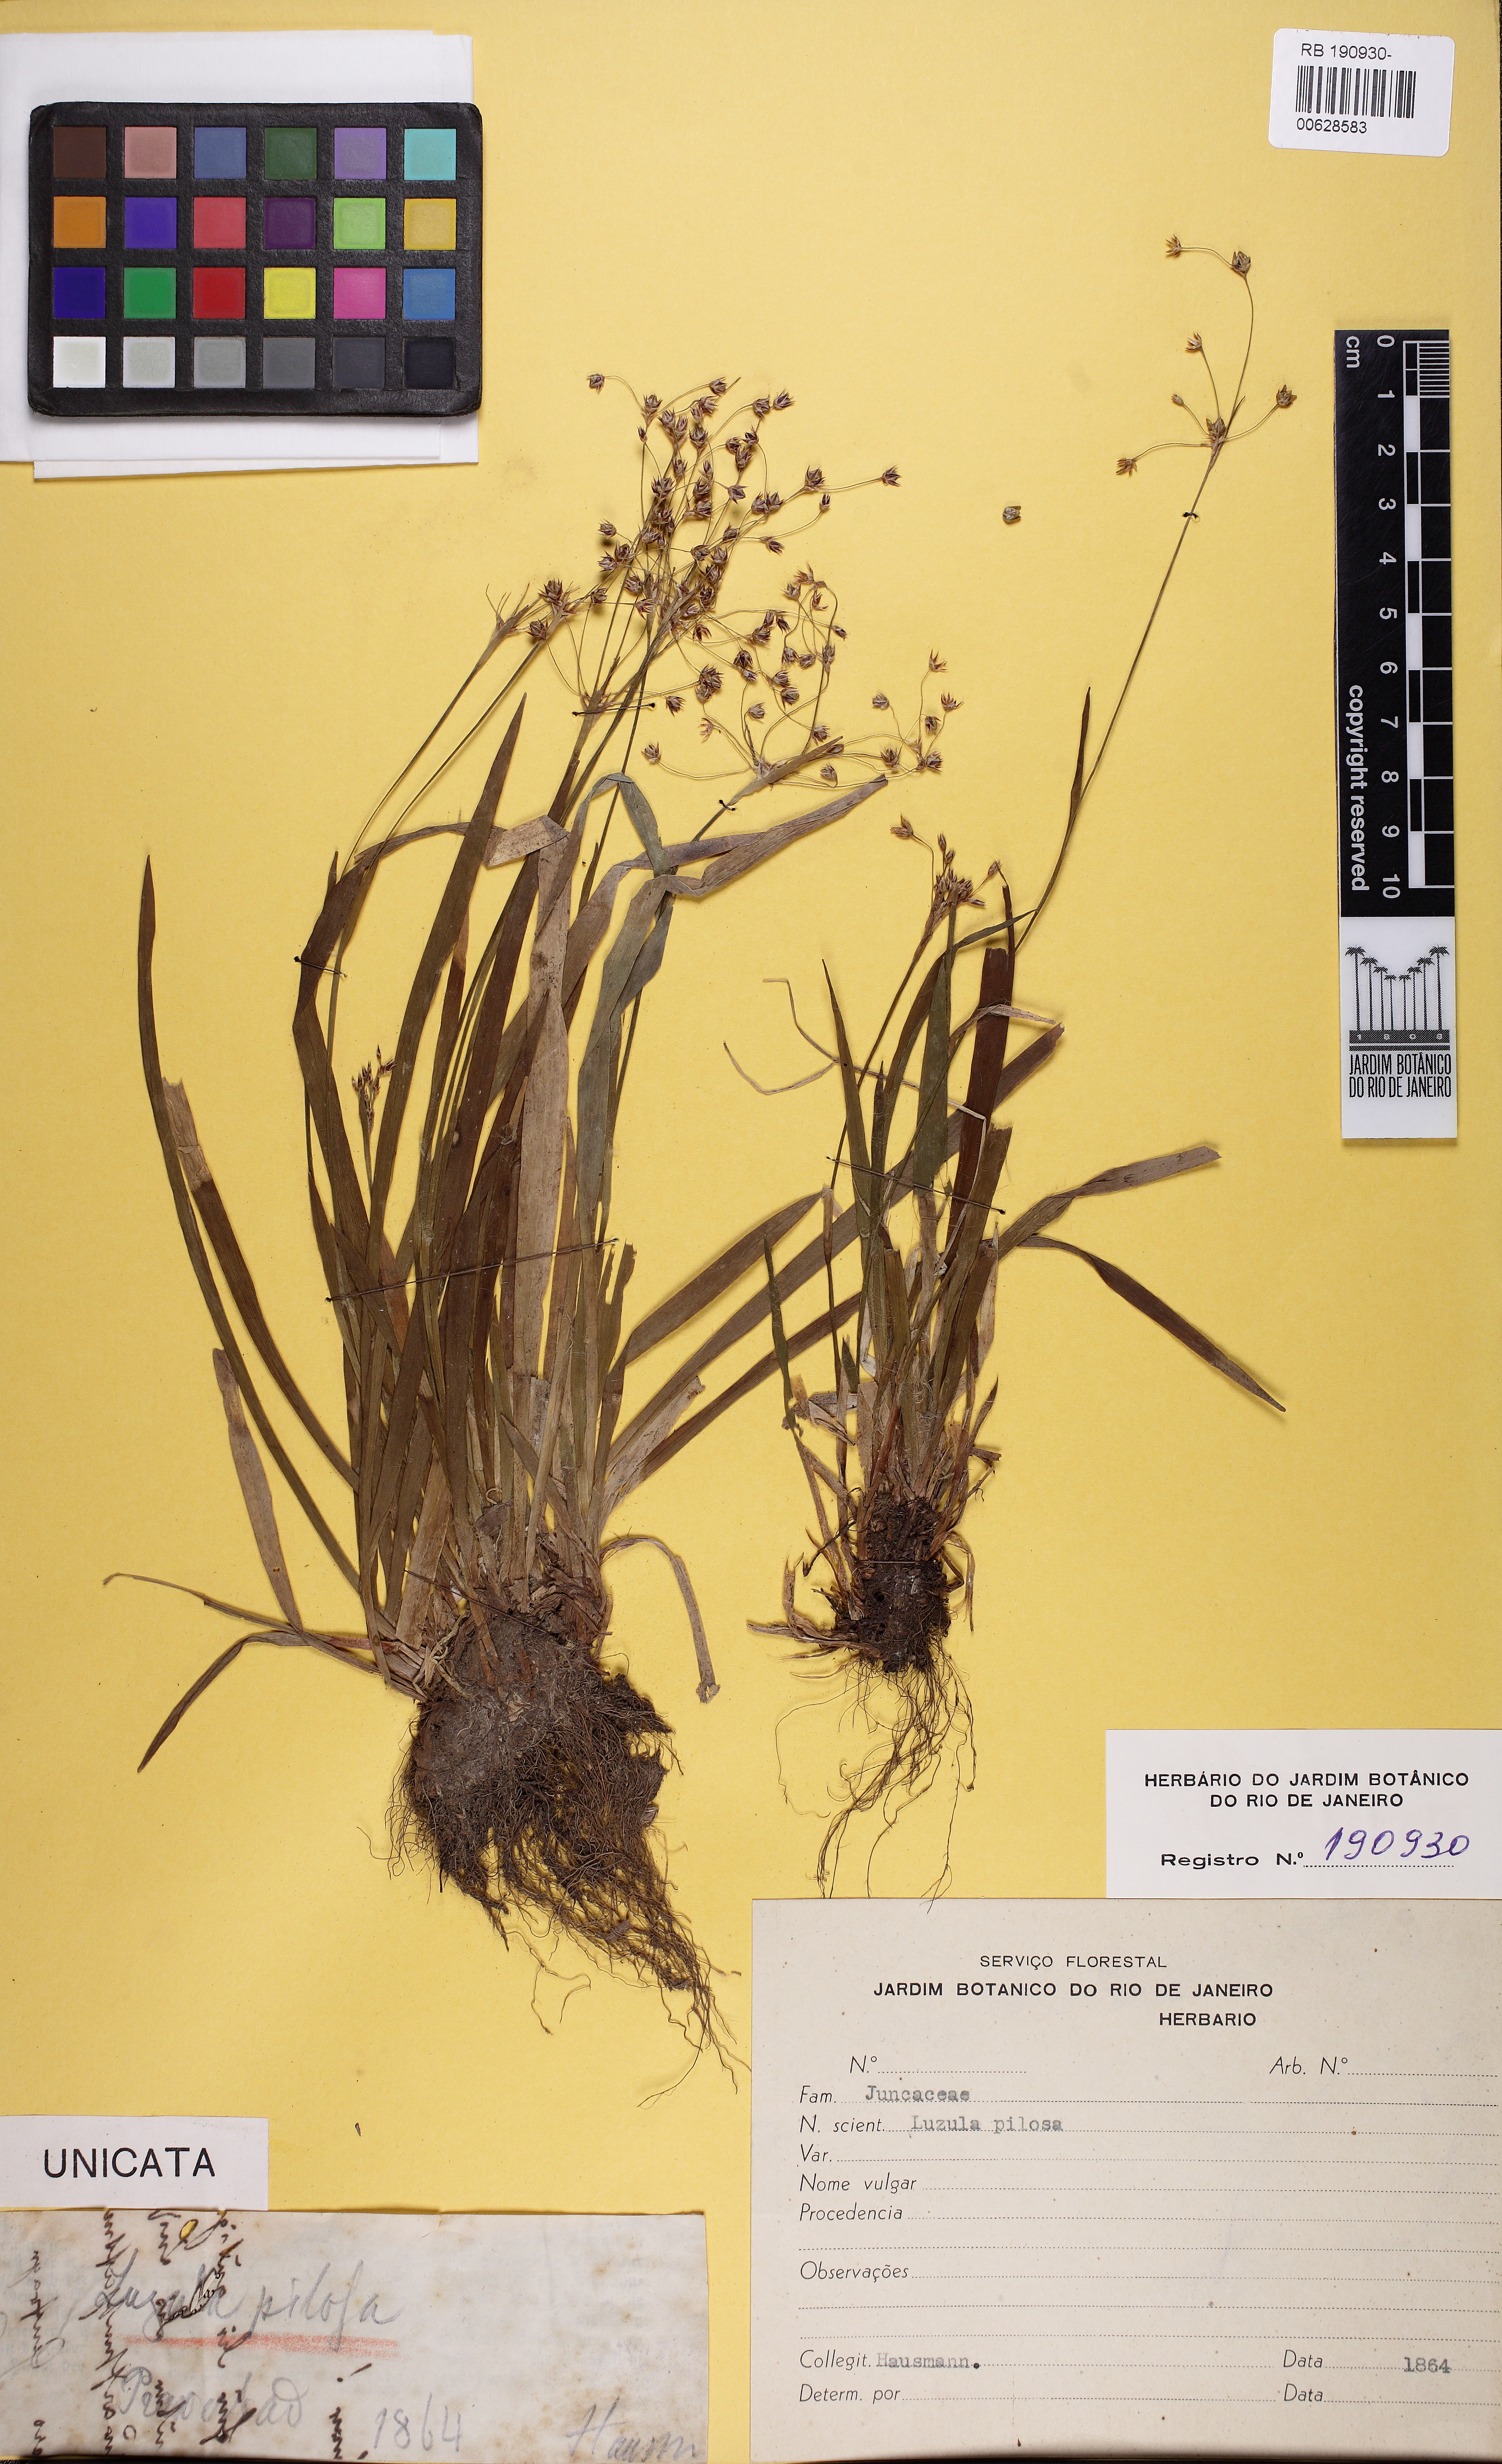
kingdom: Plantae
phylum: Tracheophyta
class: Liliopsida
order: Poales
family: Juncaceae
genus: Luzula
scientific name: Luzula pilosa
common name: Hairy wood-rush
